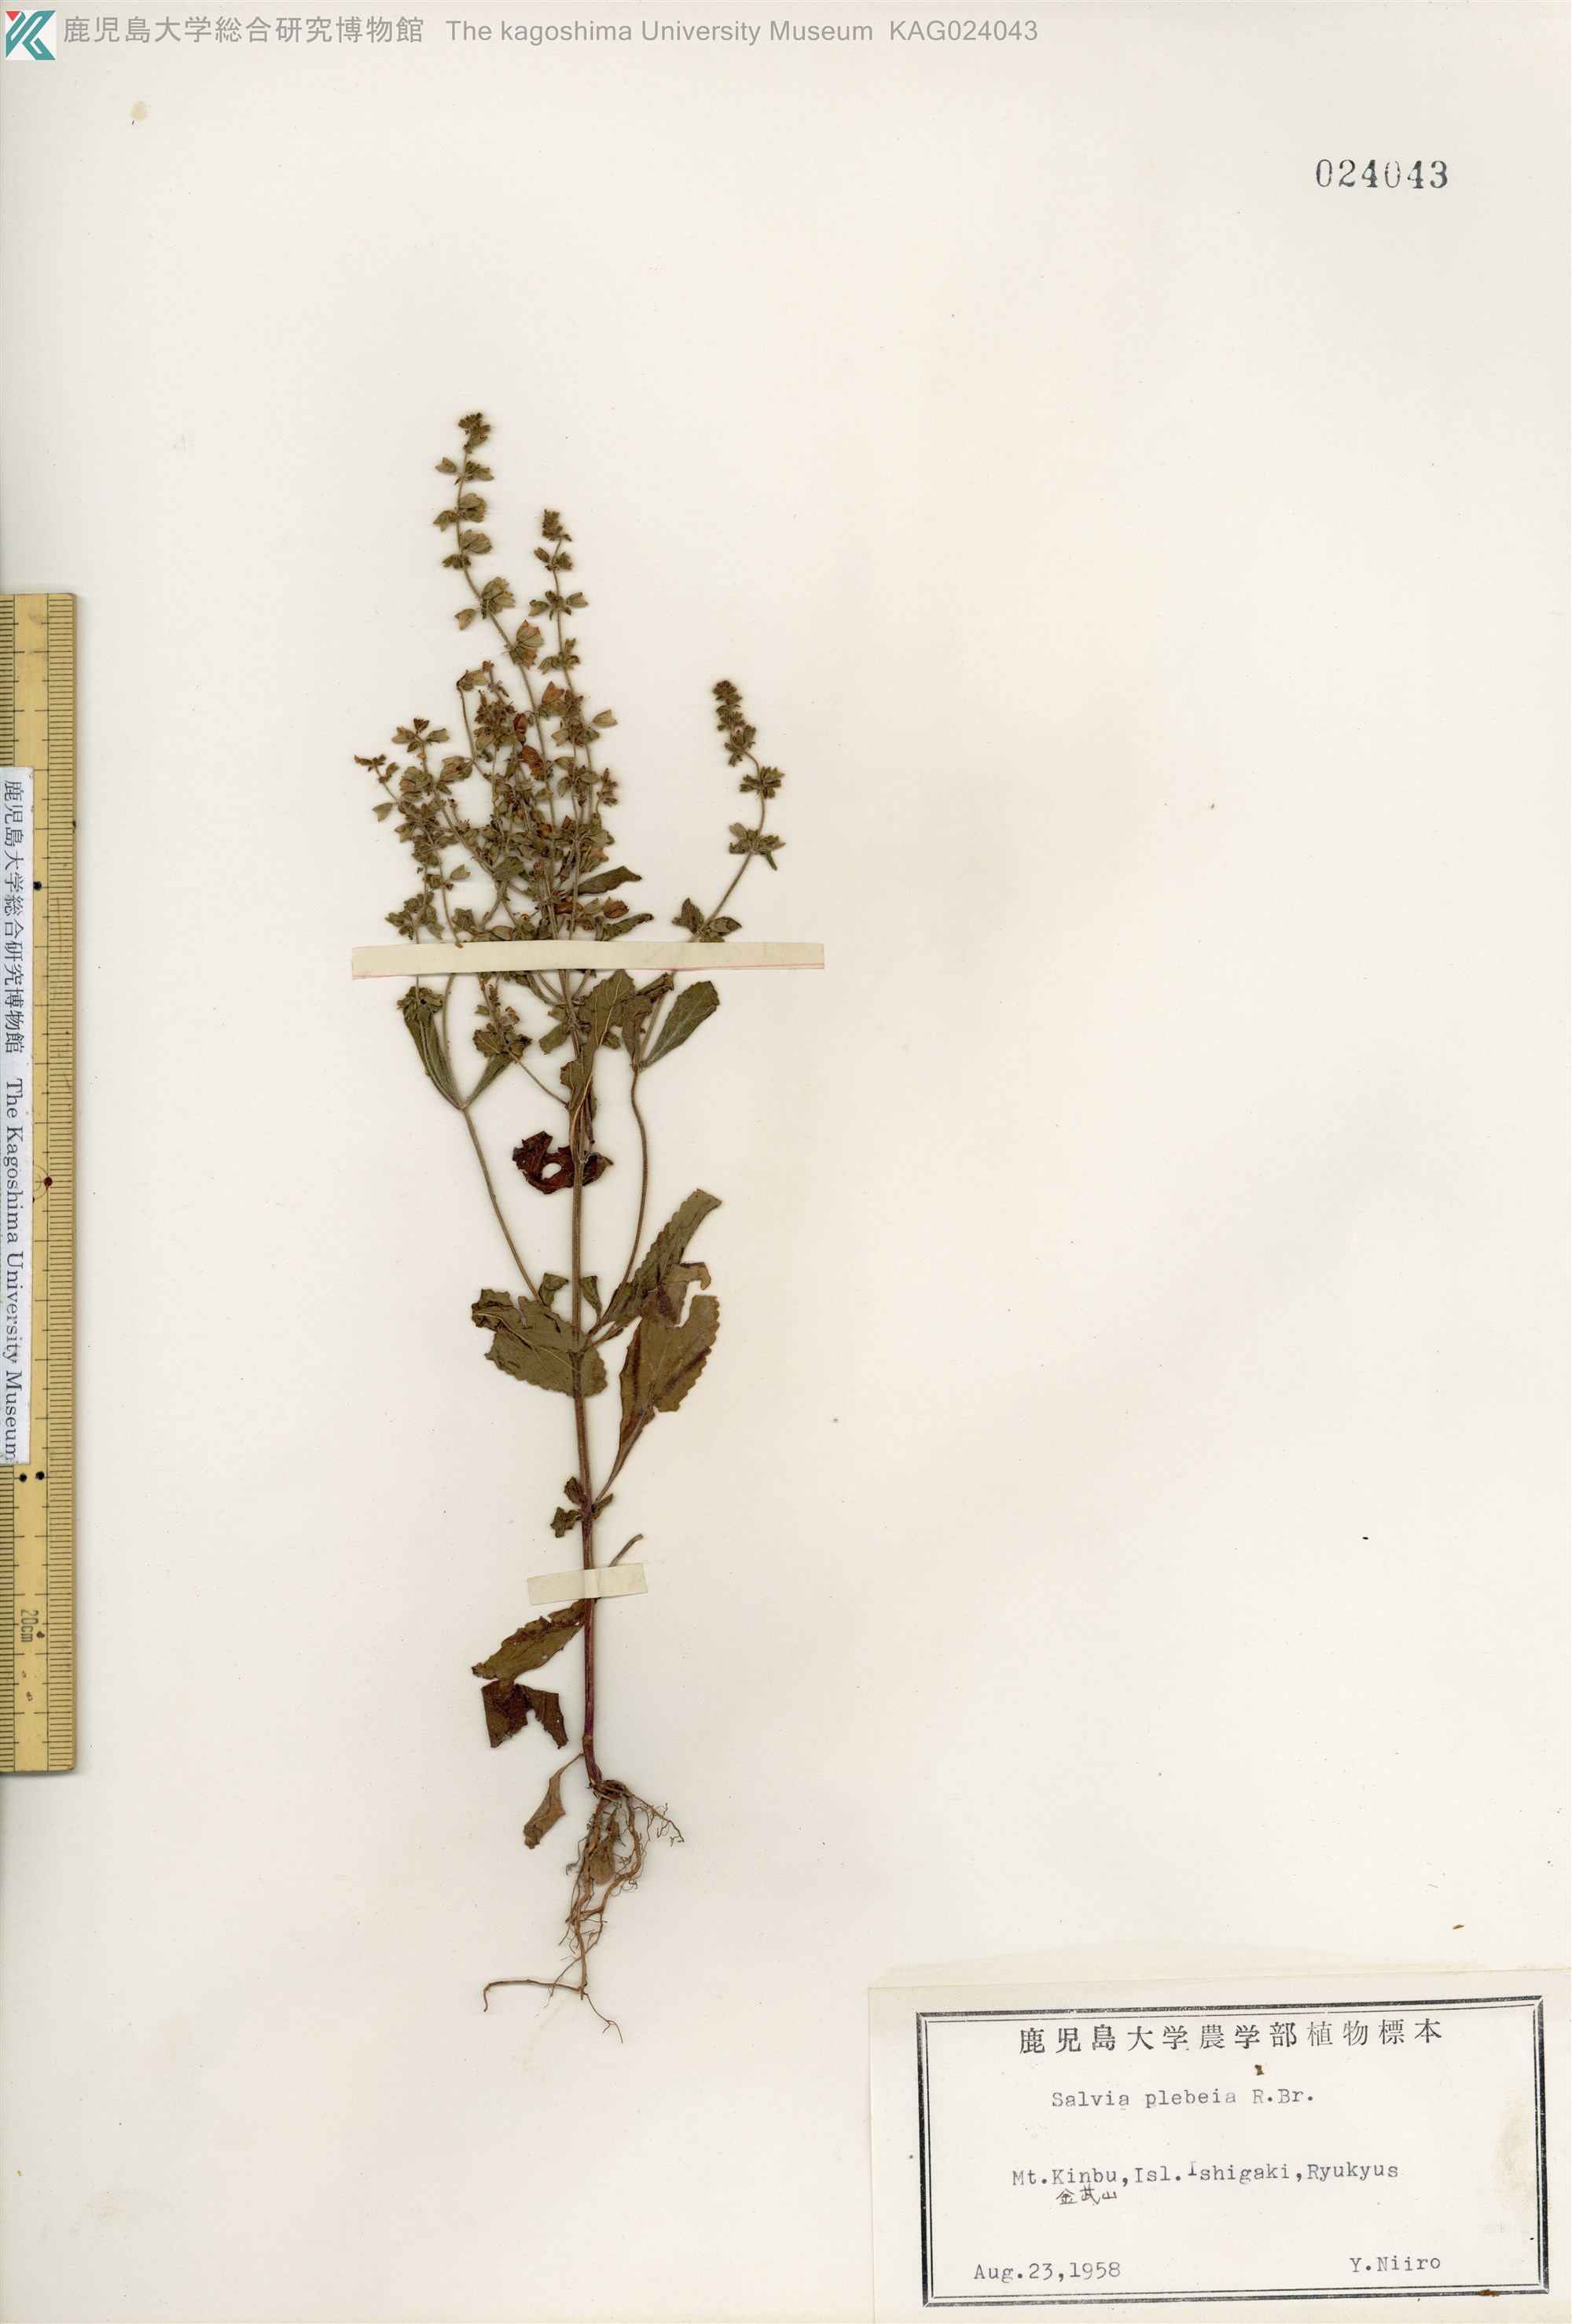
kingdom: Plantae
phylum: Tracheophyta
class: Magnoliopsida
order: Lamiales
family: Lamiaceae
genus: Salvia
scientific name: Salvia plebeia
